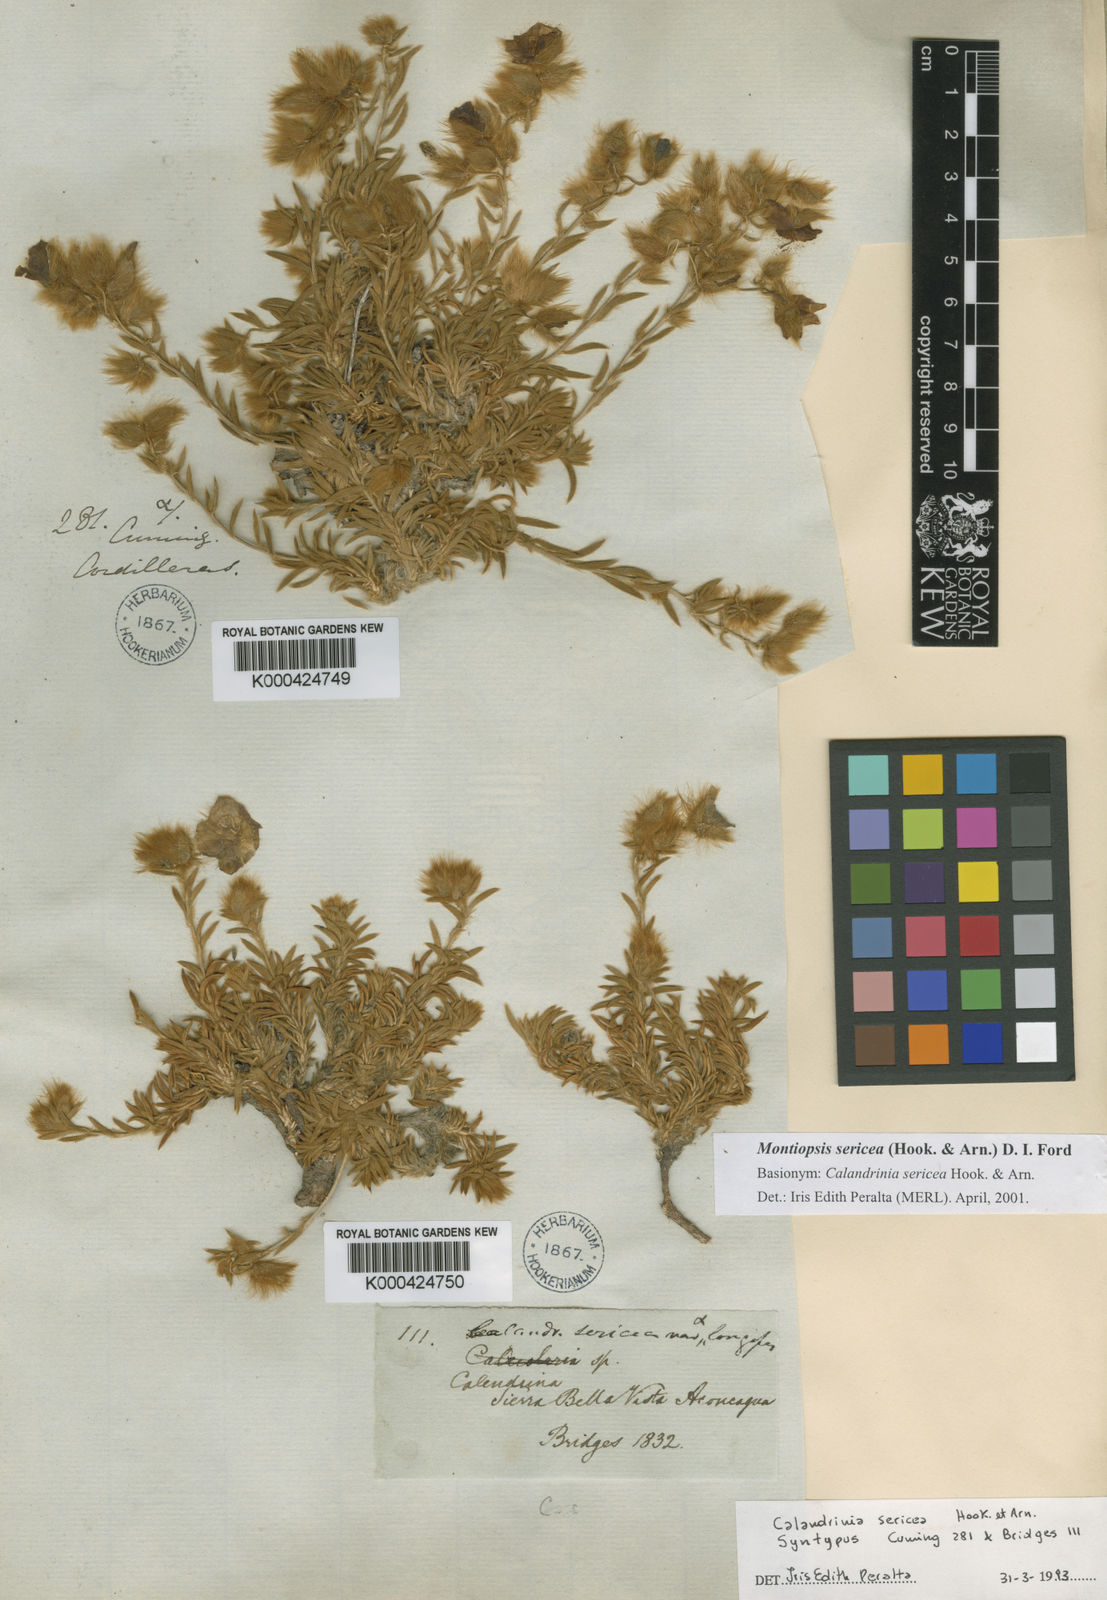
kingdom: Plantae
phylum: Tracheophyta
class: Magnoliopsida
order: Caryophyllales
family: Montiaceae
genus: Montiopsis
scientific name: Montiopsis sericea
